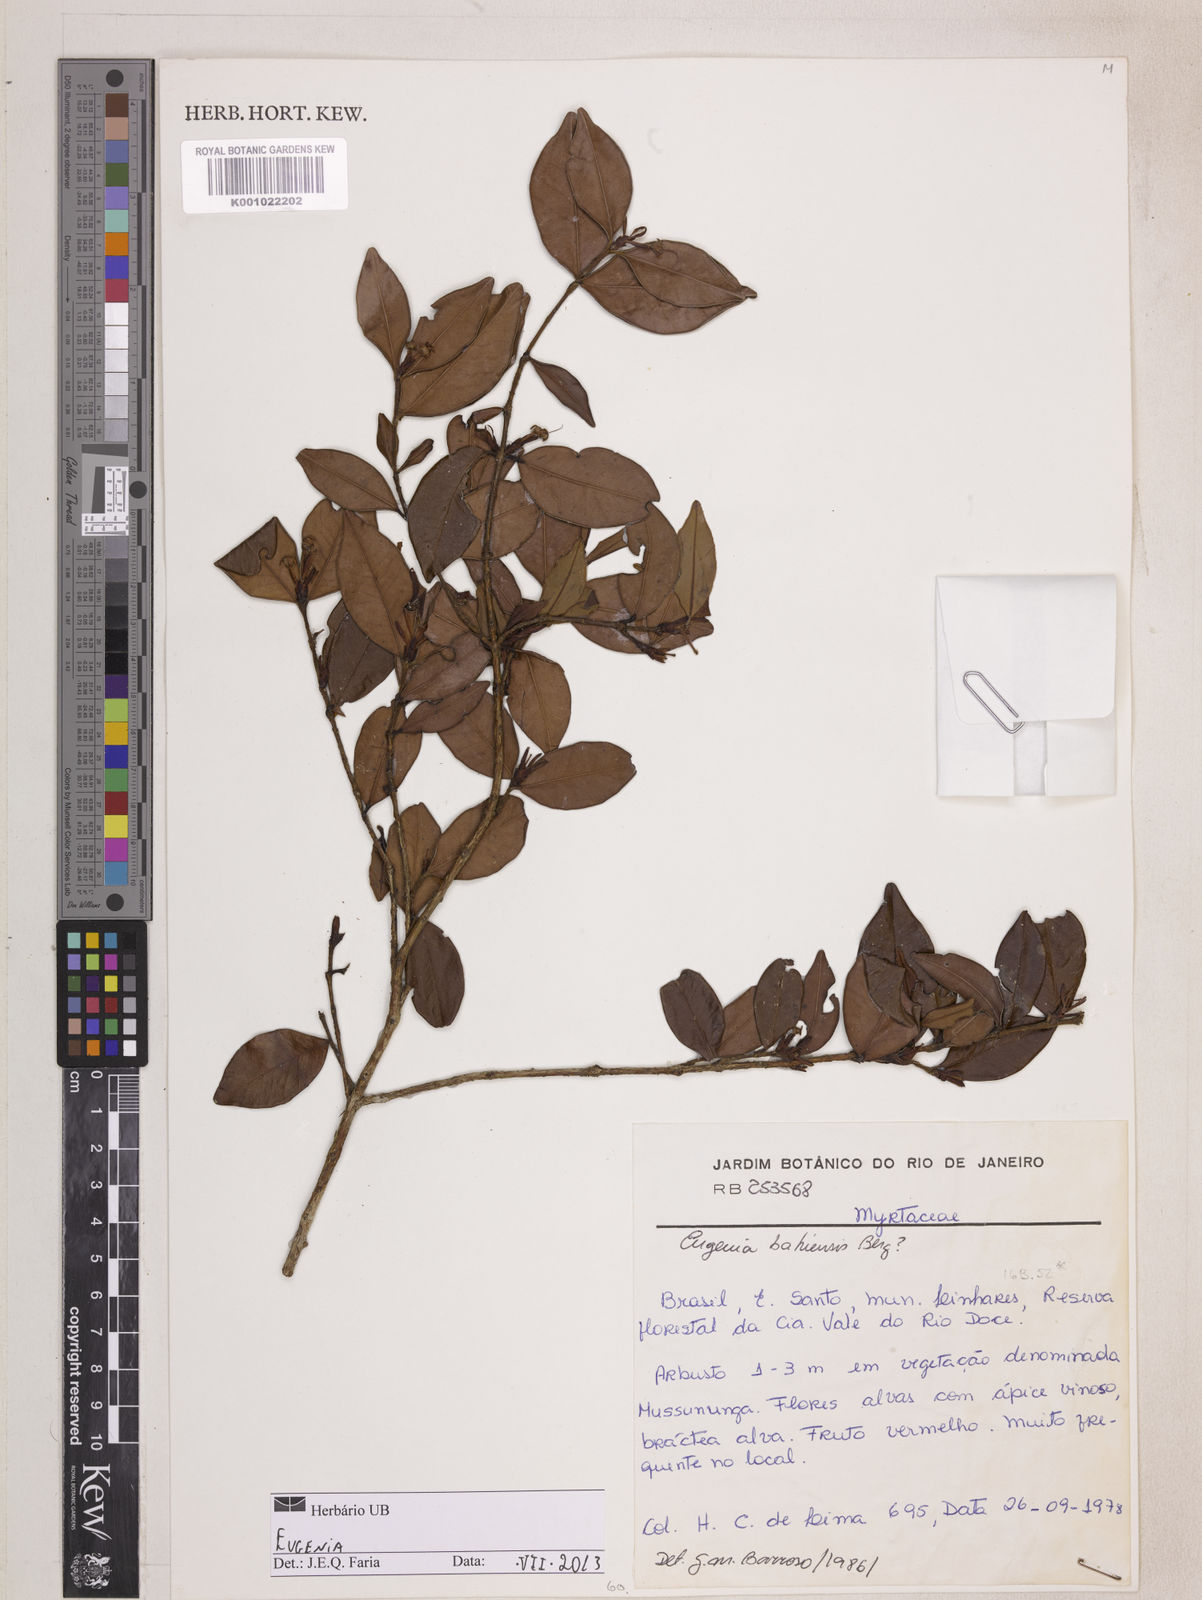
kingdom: Plantae
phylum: Tracheophyta
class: Magnoliopsida
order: Myrtales
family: Myrtaceae
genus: Eugenia
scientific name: Eugenia neosilvestris
